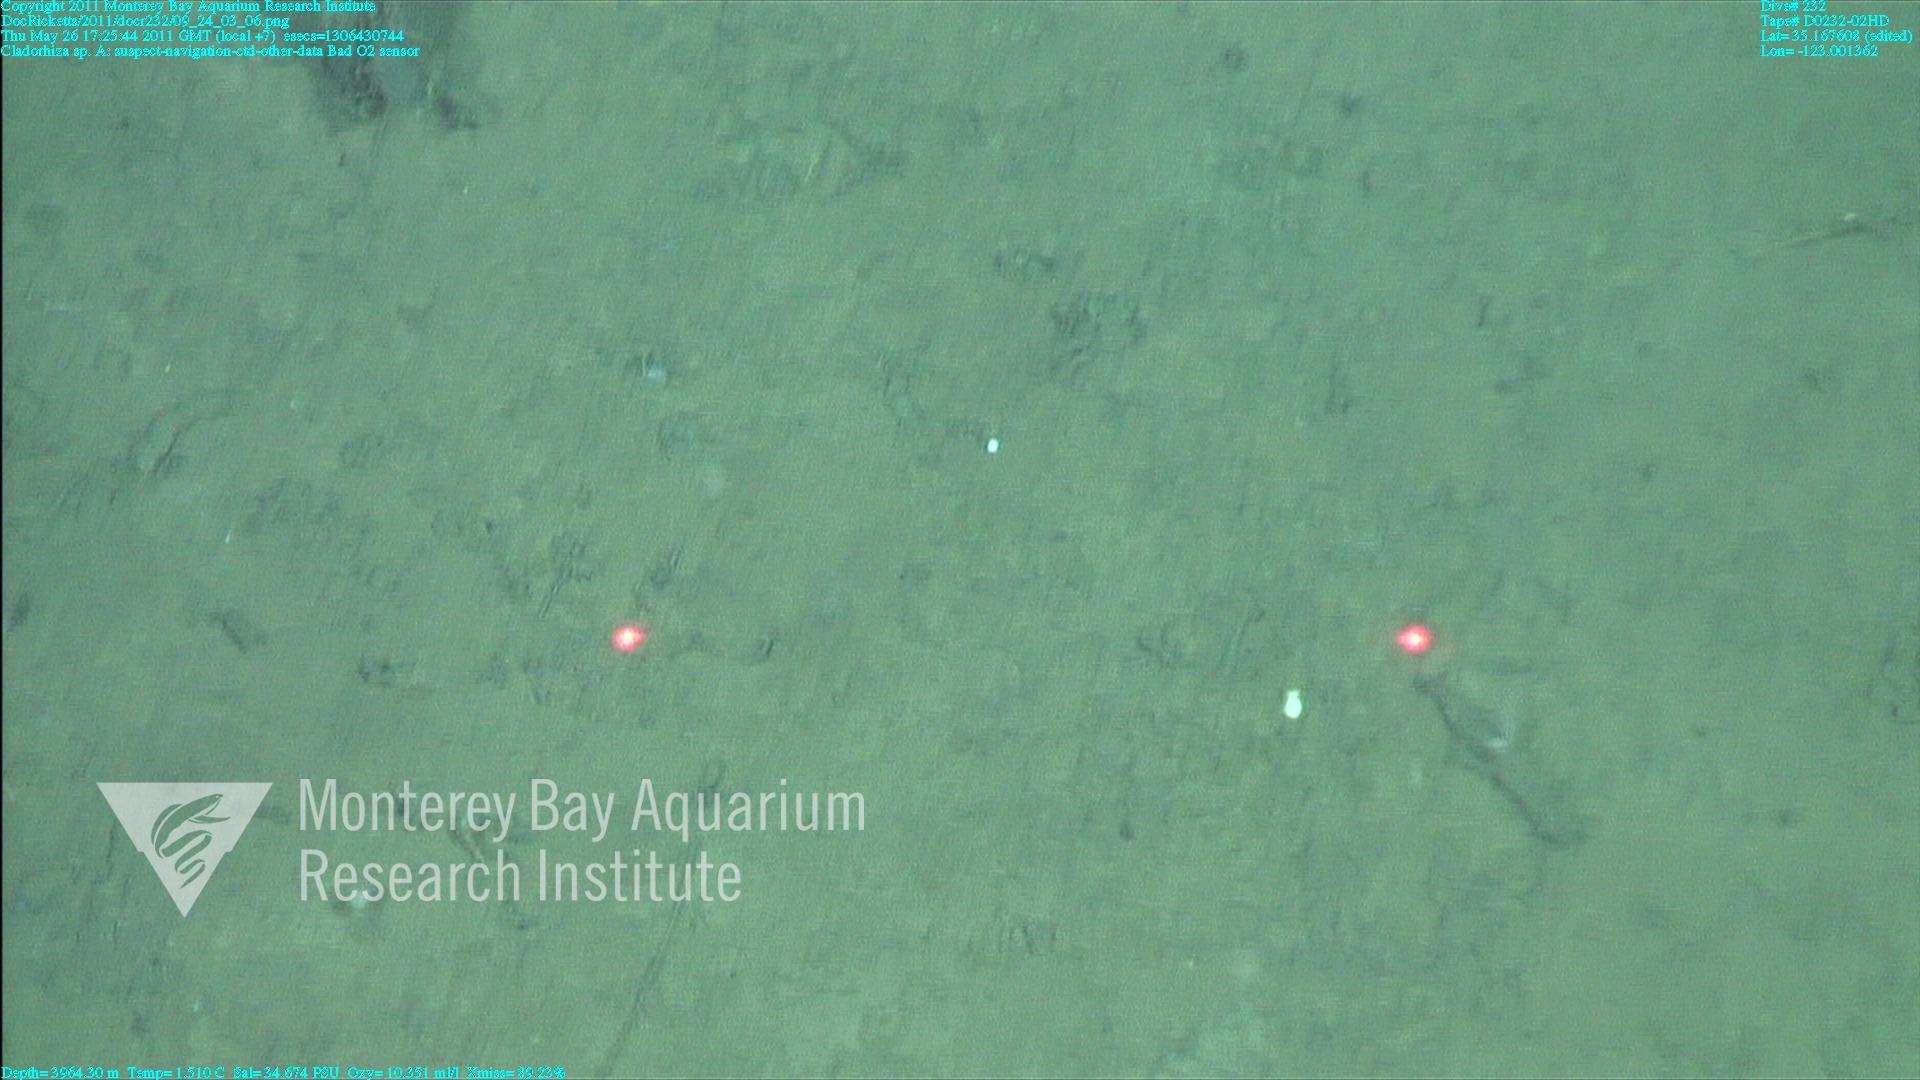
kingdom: Animalia
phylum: Porifera
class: Demospongiae
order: Poecilosclerida
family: Cladorhizidae
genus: Cladorhiza
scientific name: Cladorhiza
